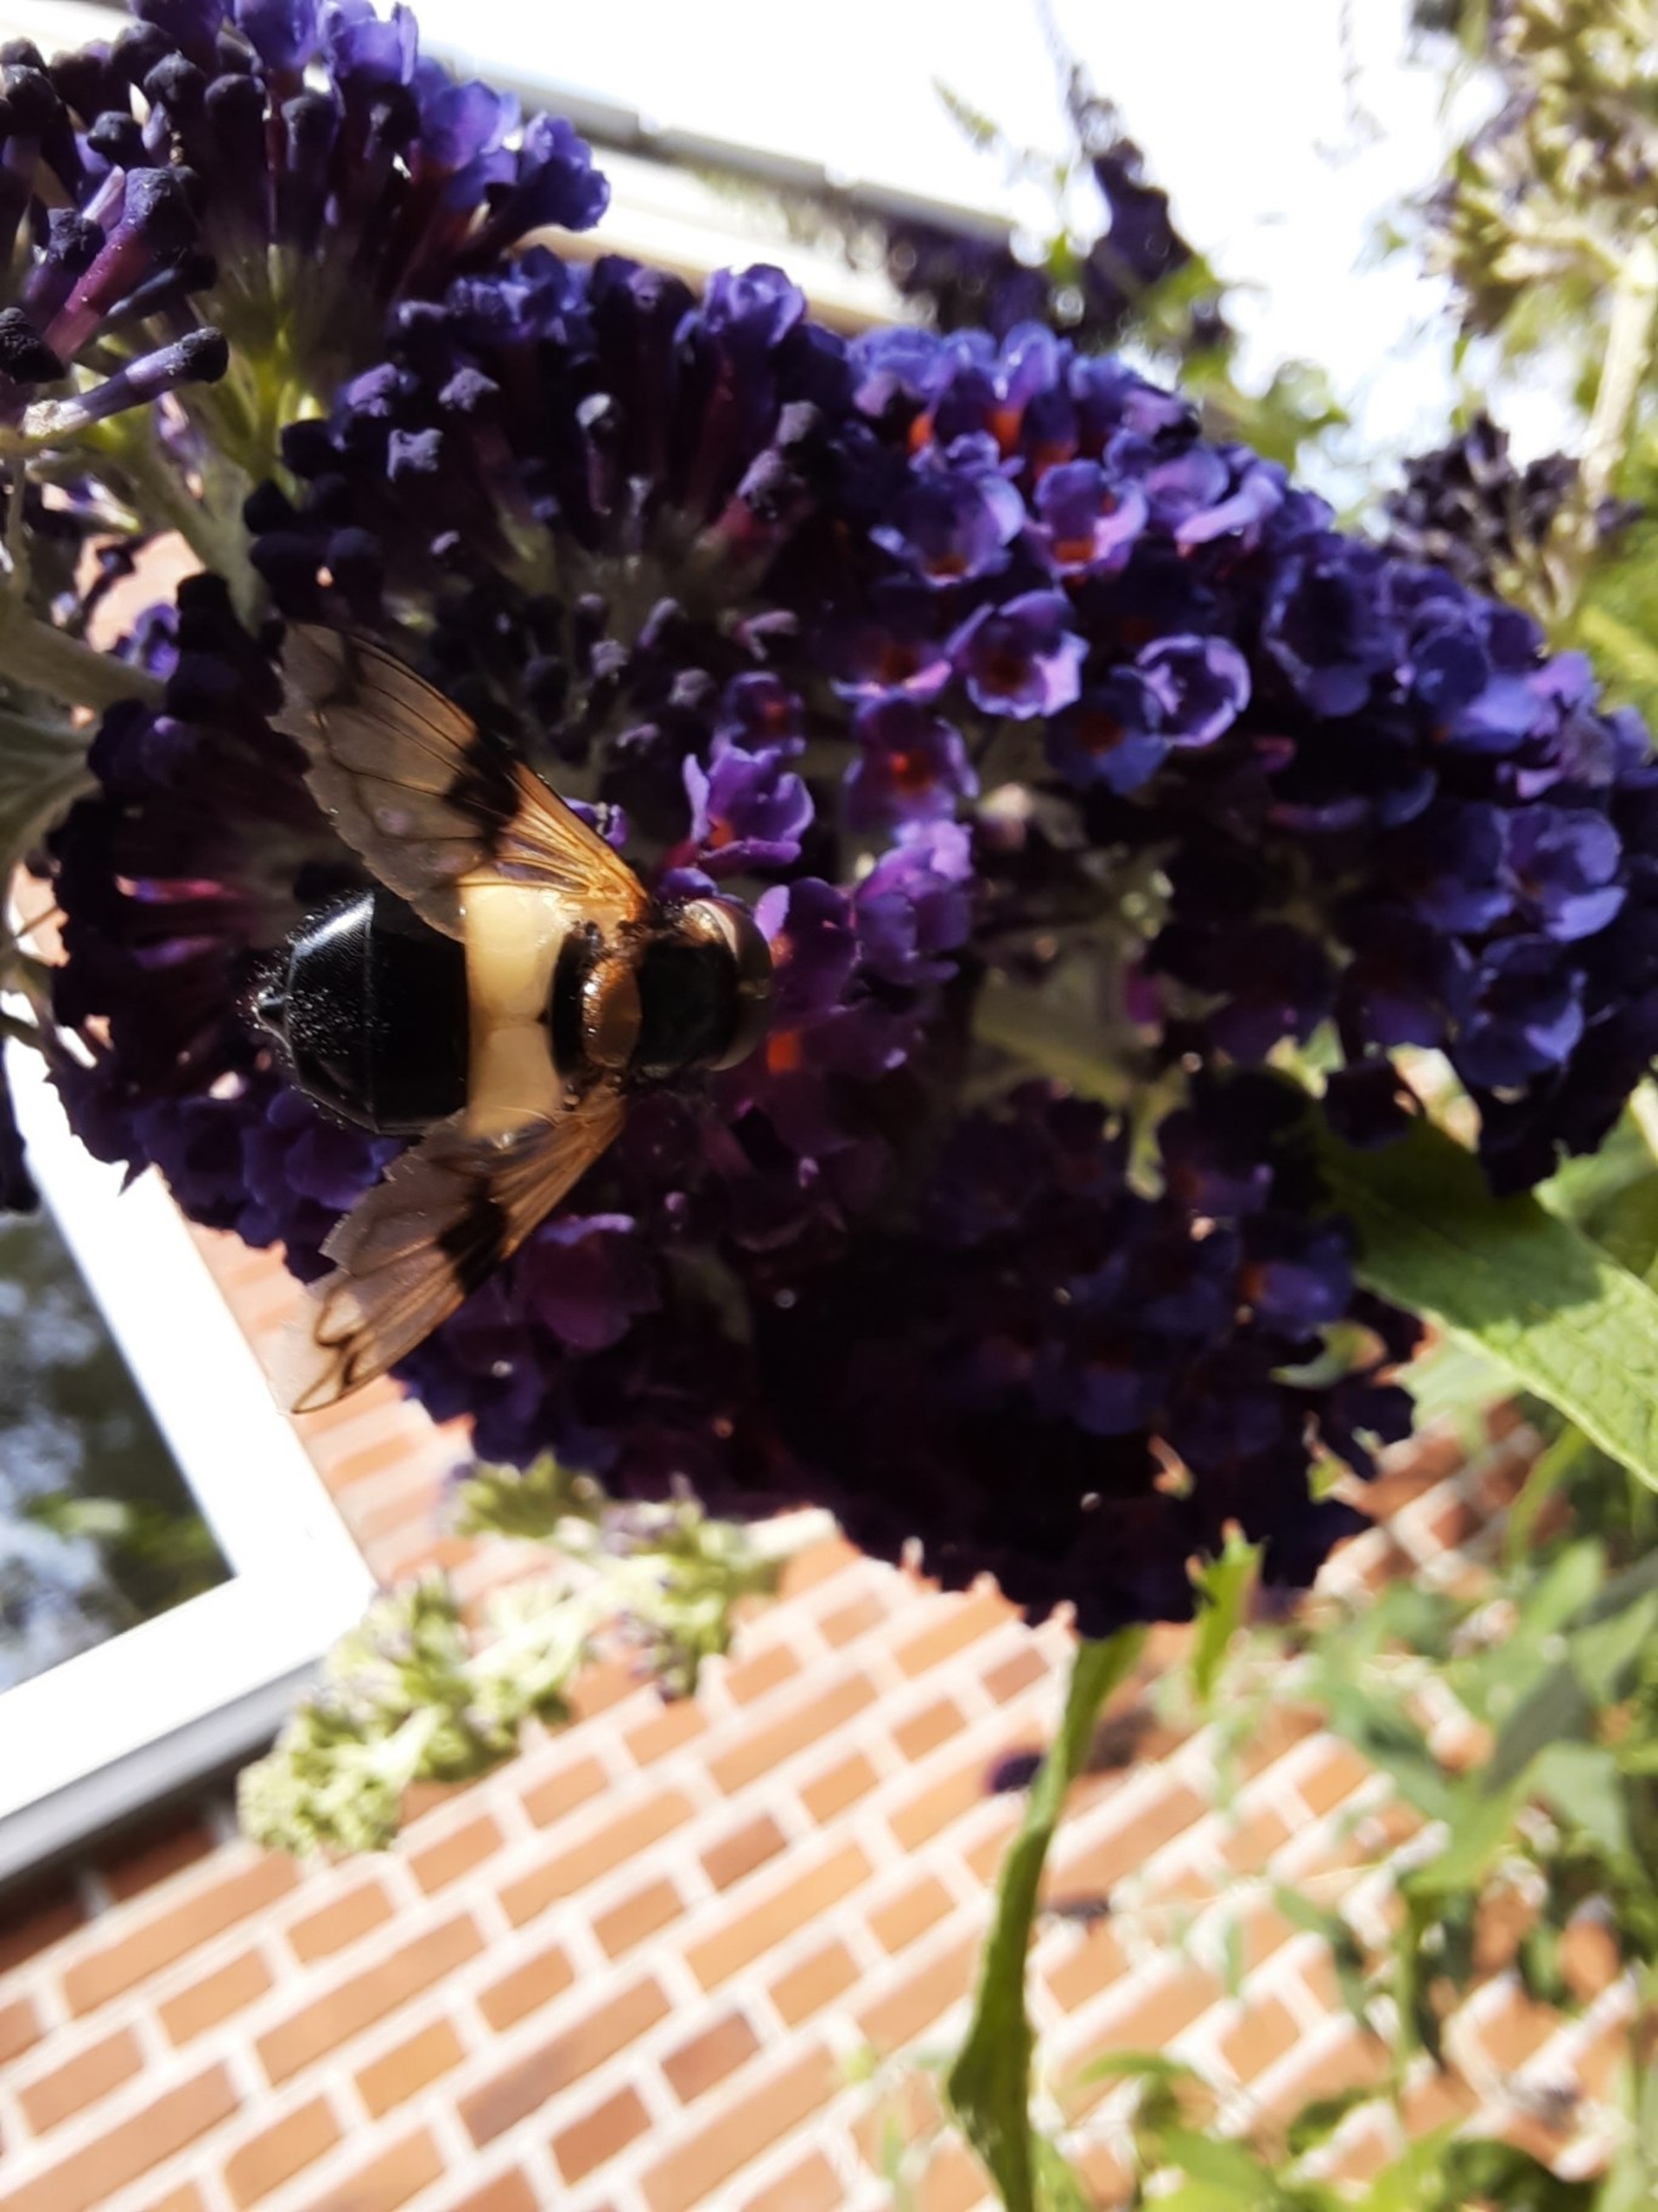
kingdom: Animalia
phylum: Arthropoda
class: Insecta
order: Diptera
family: Syrphidae
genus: Volucella
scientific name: Volucella pellucens
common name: Hvidbåndet humlesvirreflue
